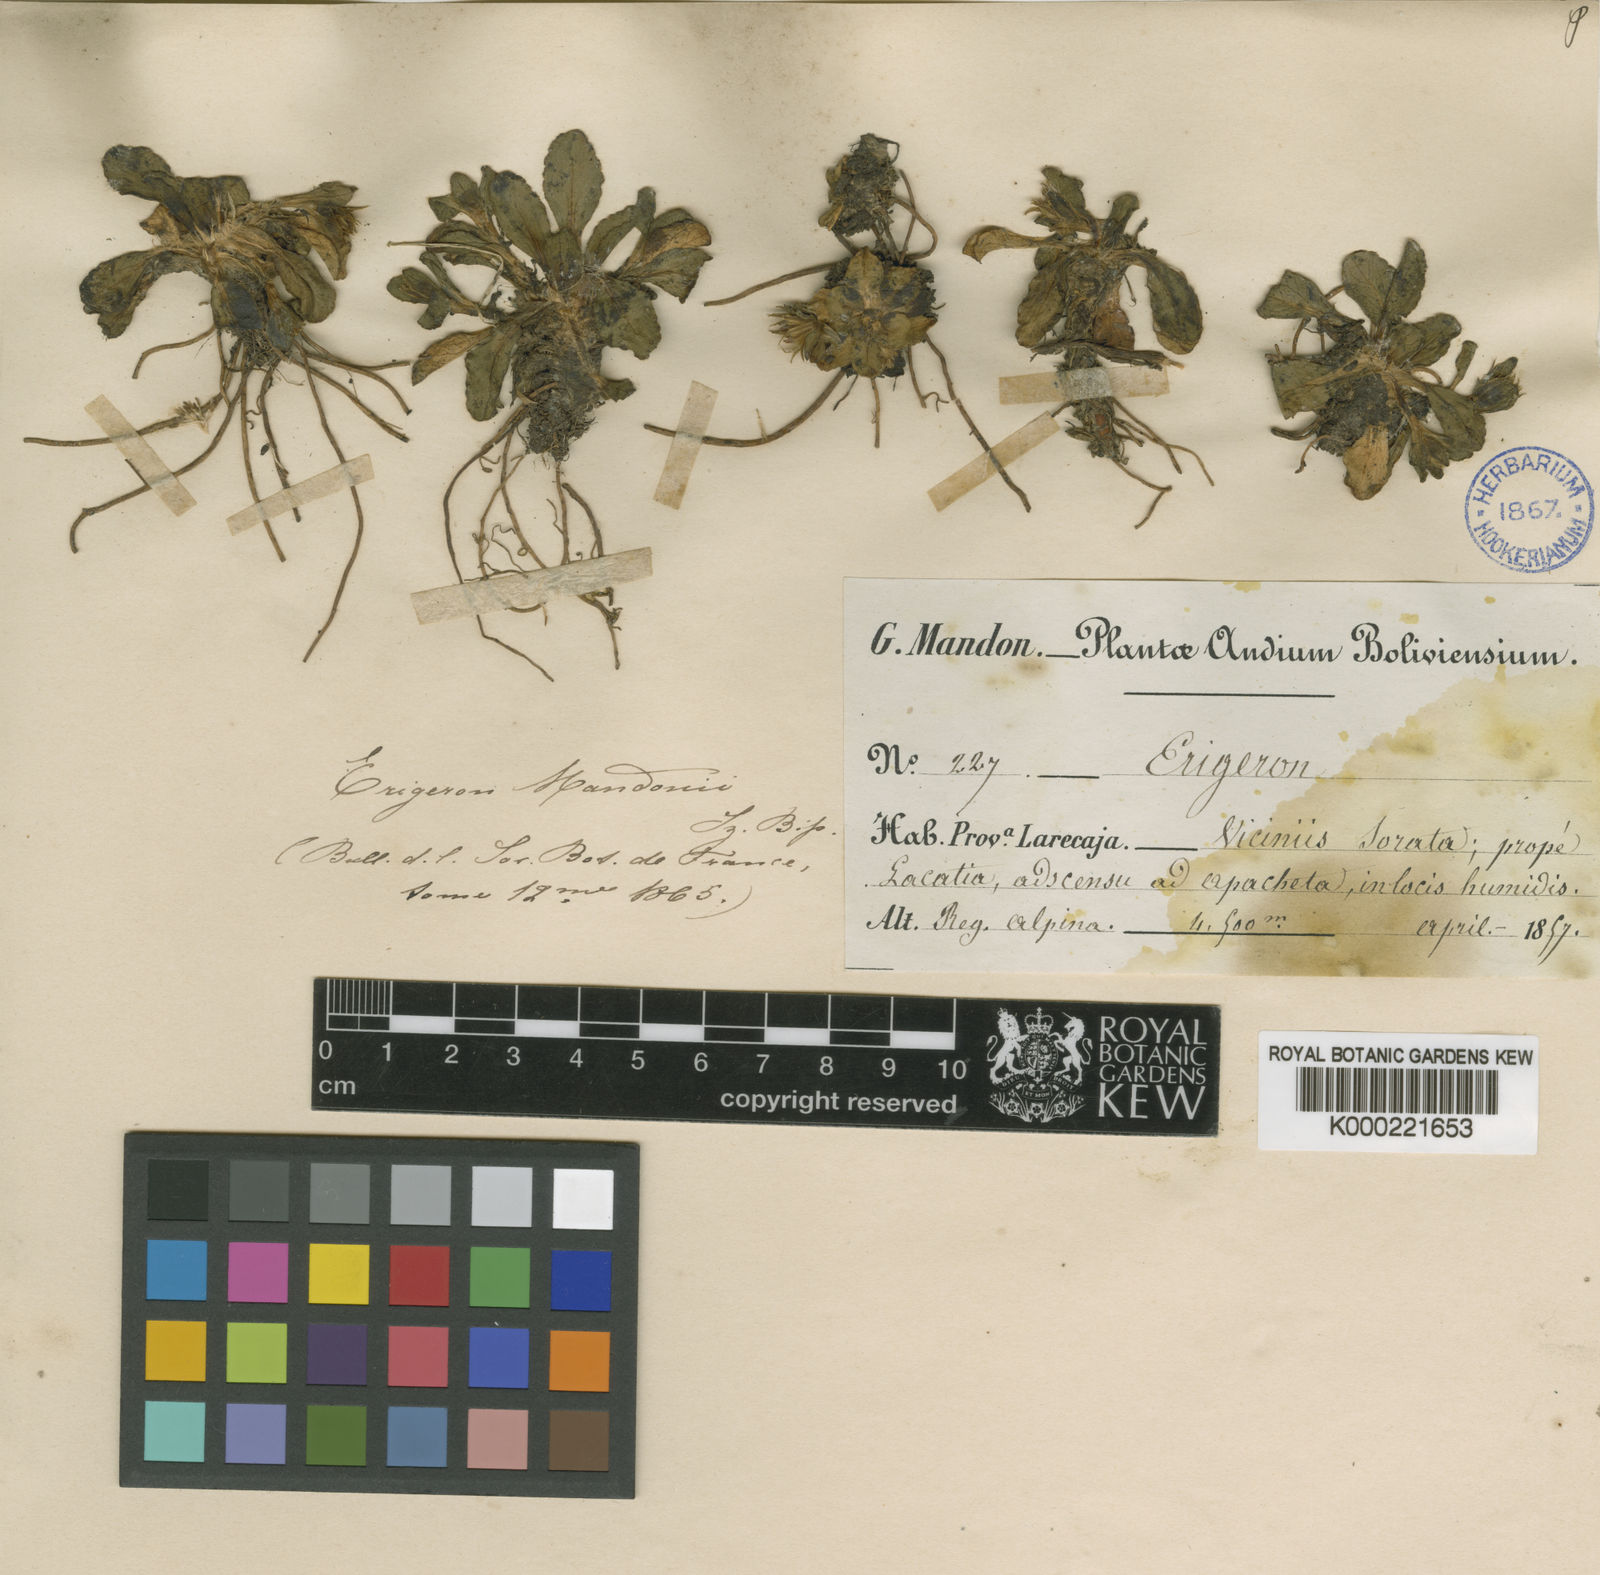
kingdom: Plantae
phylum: Tracheophyta
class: Magnoliopsida
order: Asterales
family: Asteraceae
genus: Aster
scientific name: Aster
